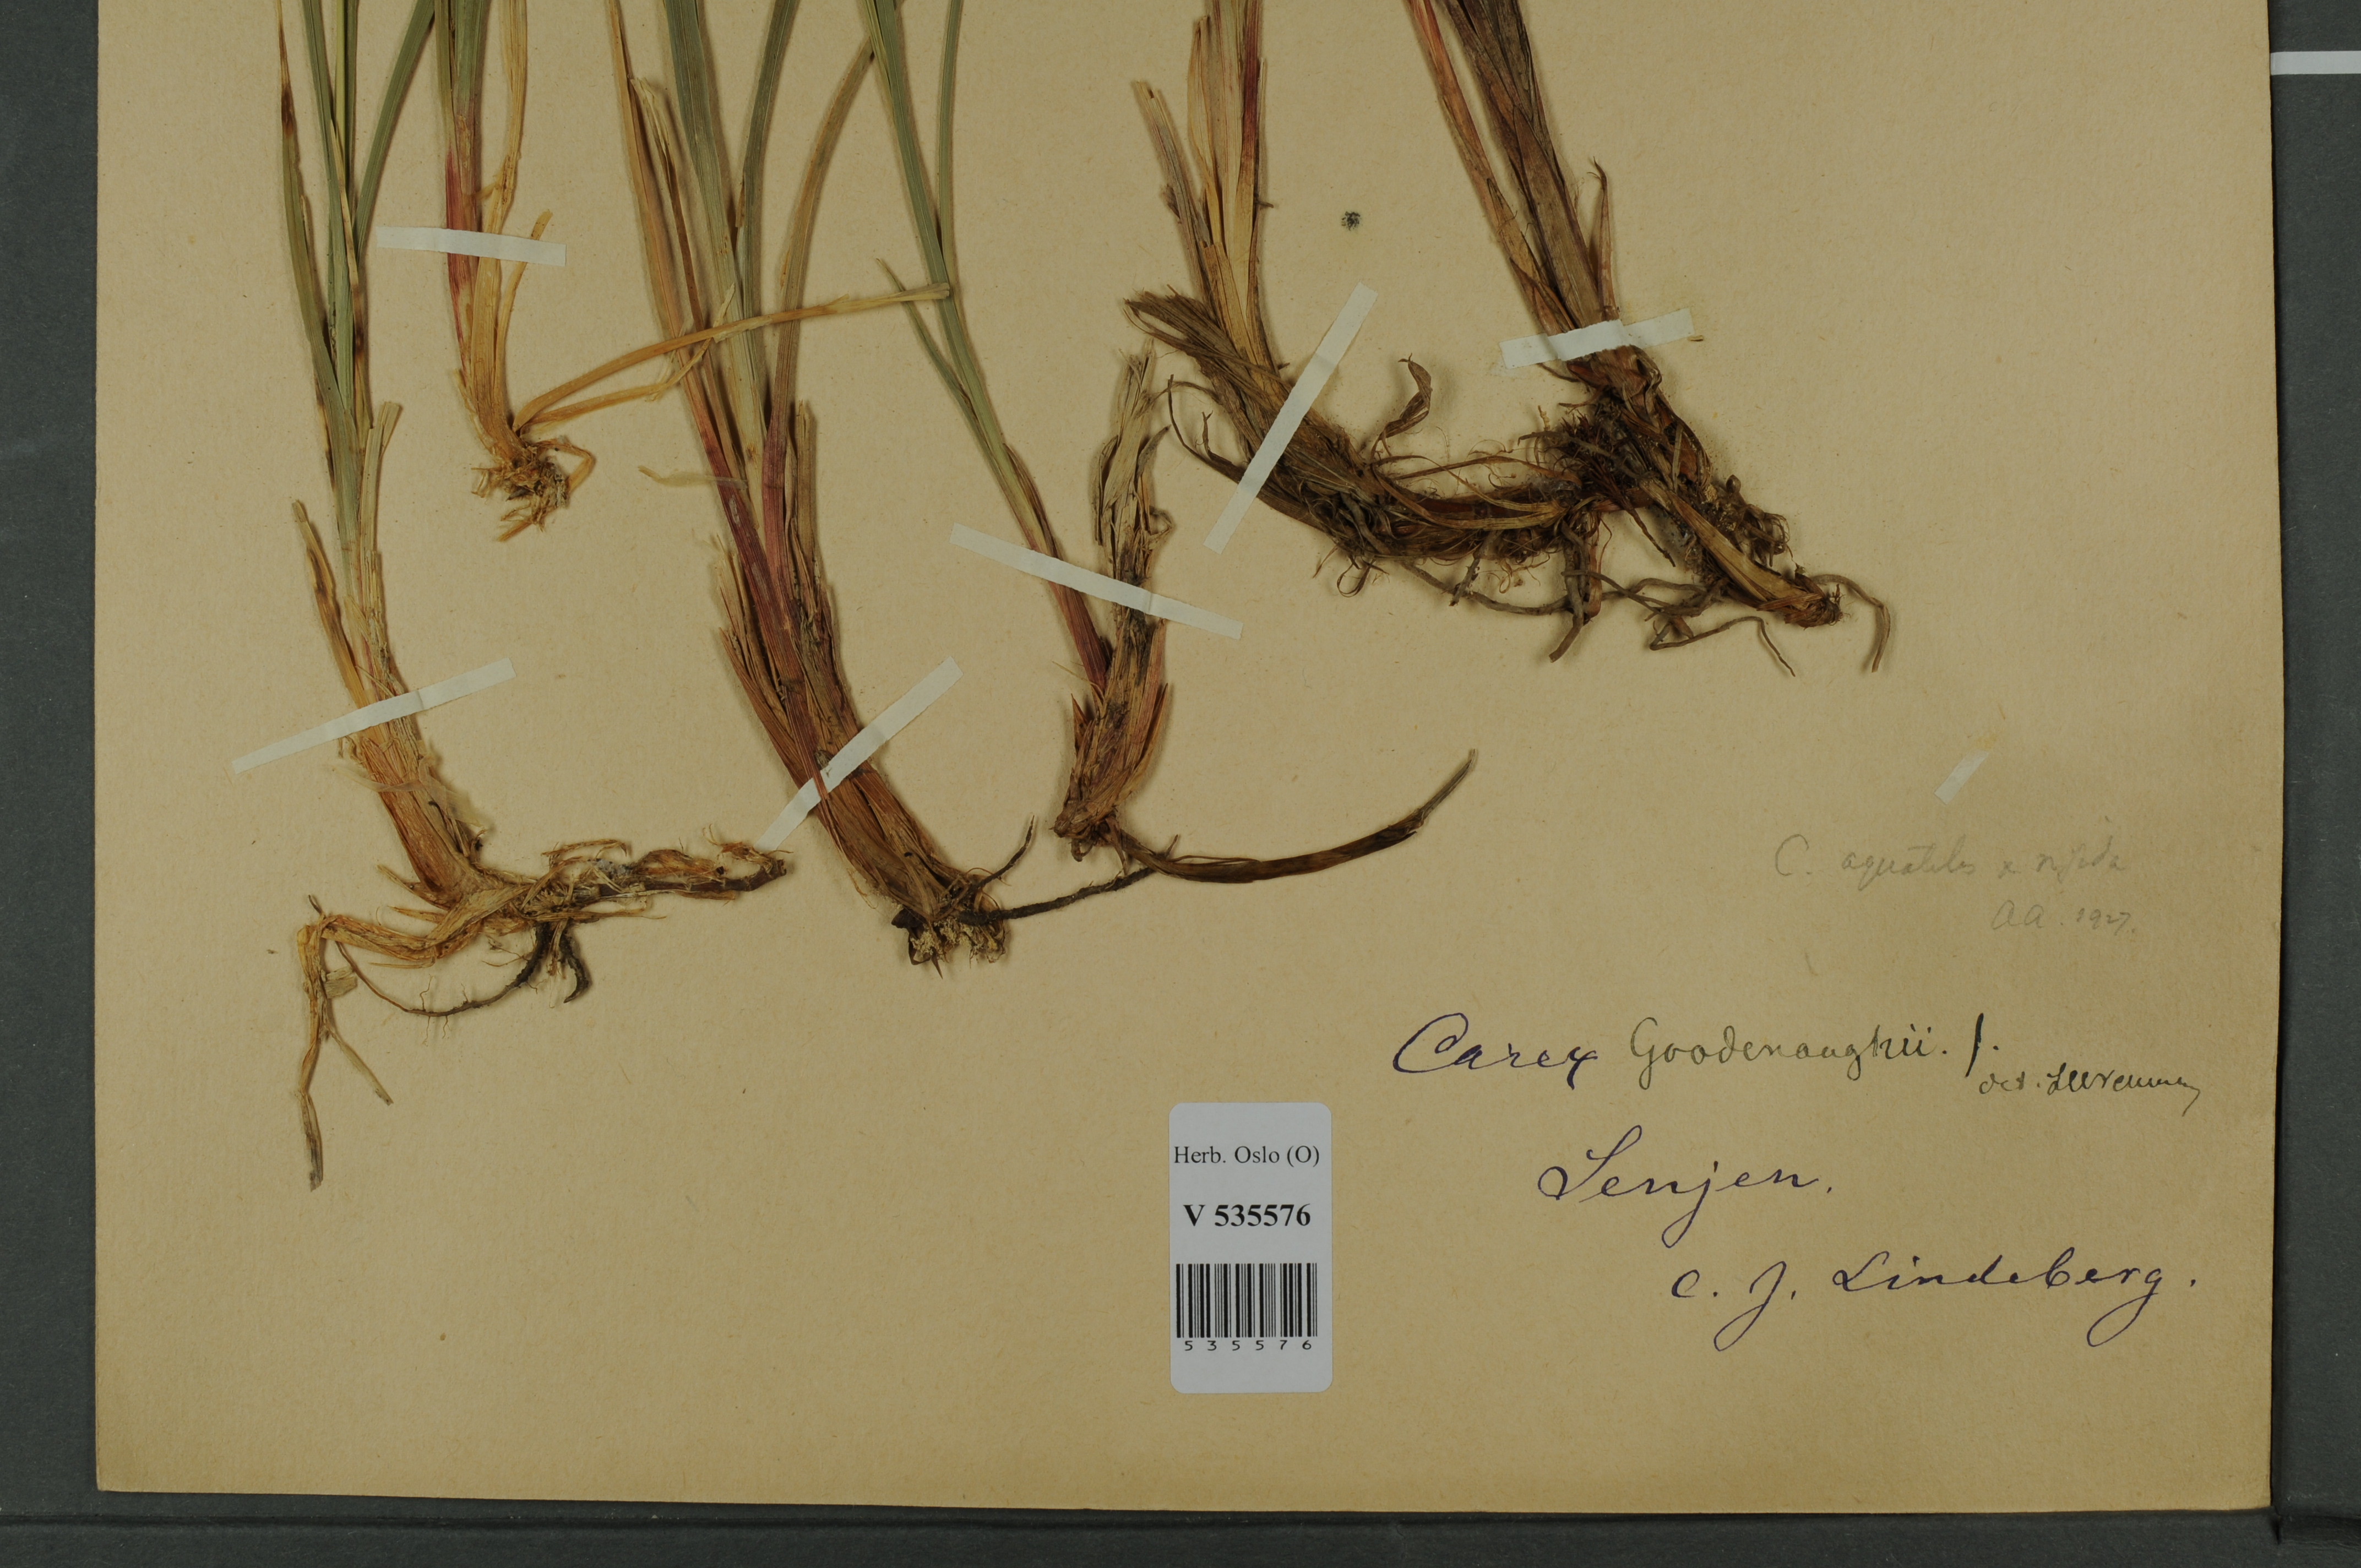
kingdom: Plantae
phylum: Tracheophyta
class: Liliopsida
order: Poales
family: Cyperaceae
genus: Carex
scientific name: Carex
